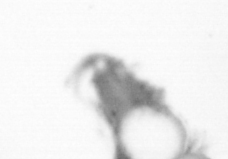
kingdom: Animalia
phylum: Arthropoda
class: Copepoda
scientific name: Copepoda
